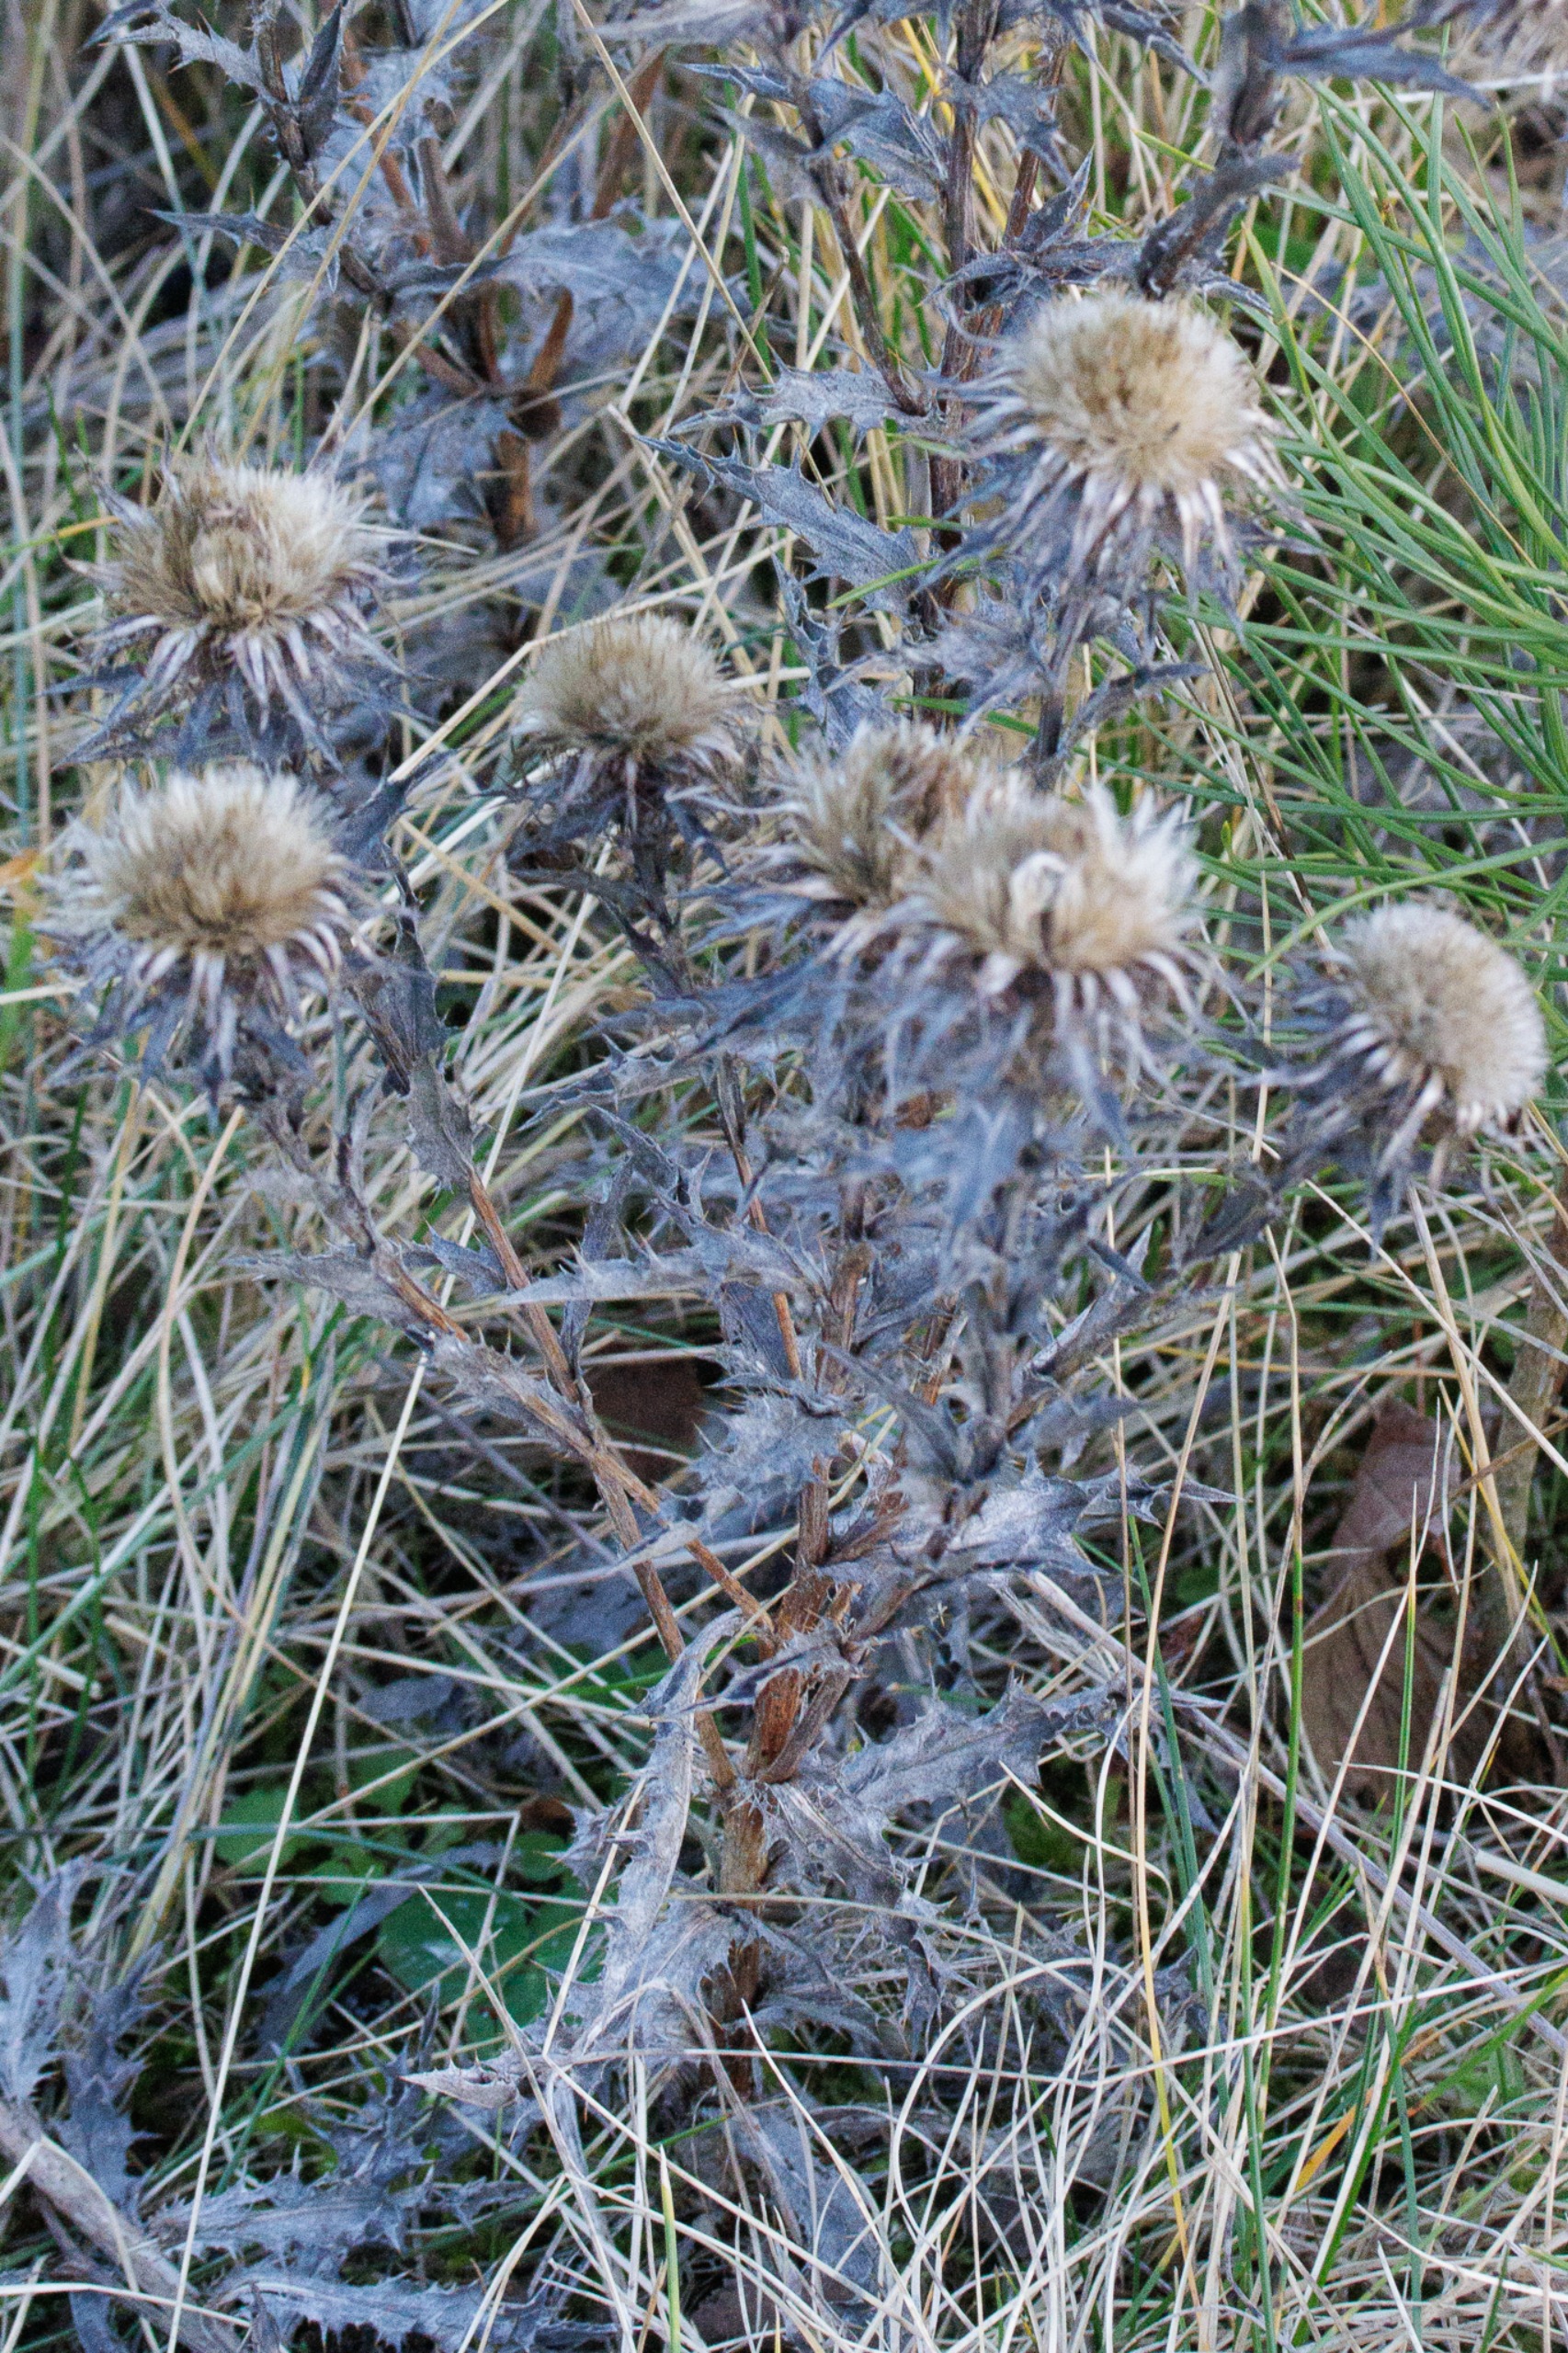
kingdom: Plantae
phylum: Tracheophyta
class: Magnoliopsida
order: Asterales
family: Asteraceae
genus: Carlina
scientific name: Carlina vulgaris
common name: Bakketidsel
